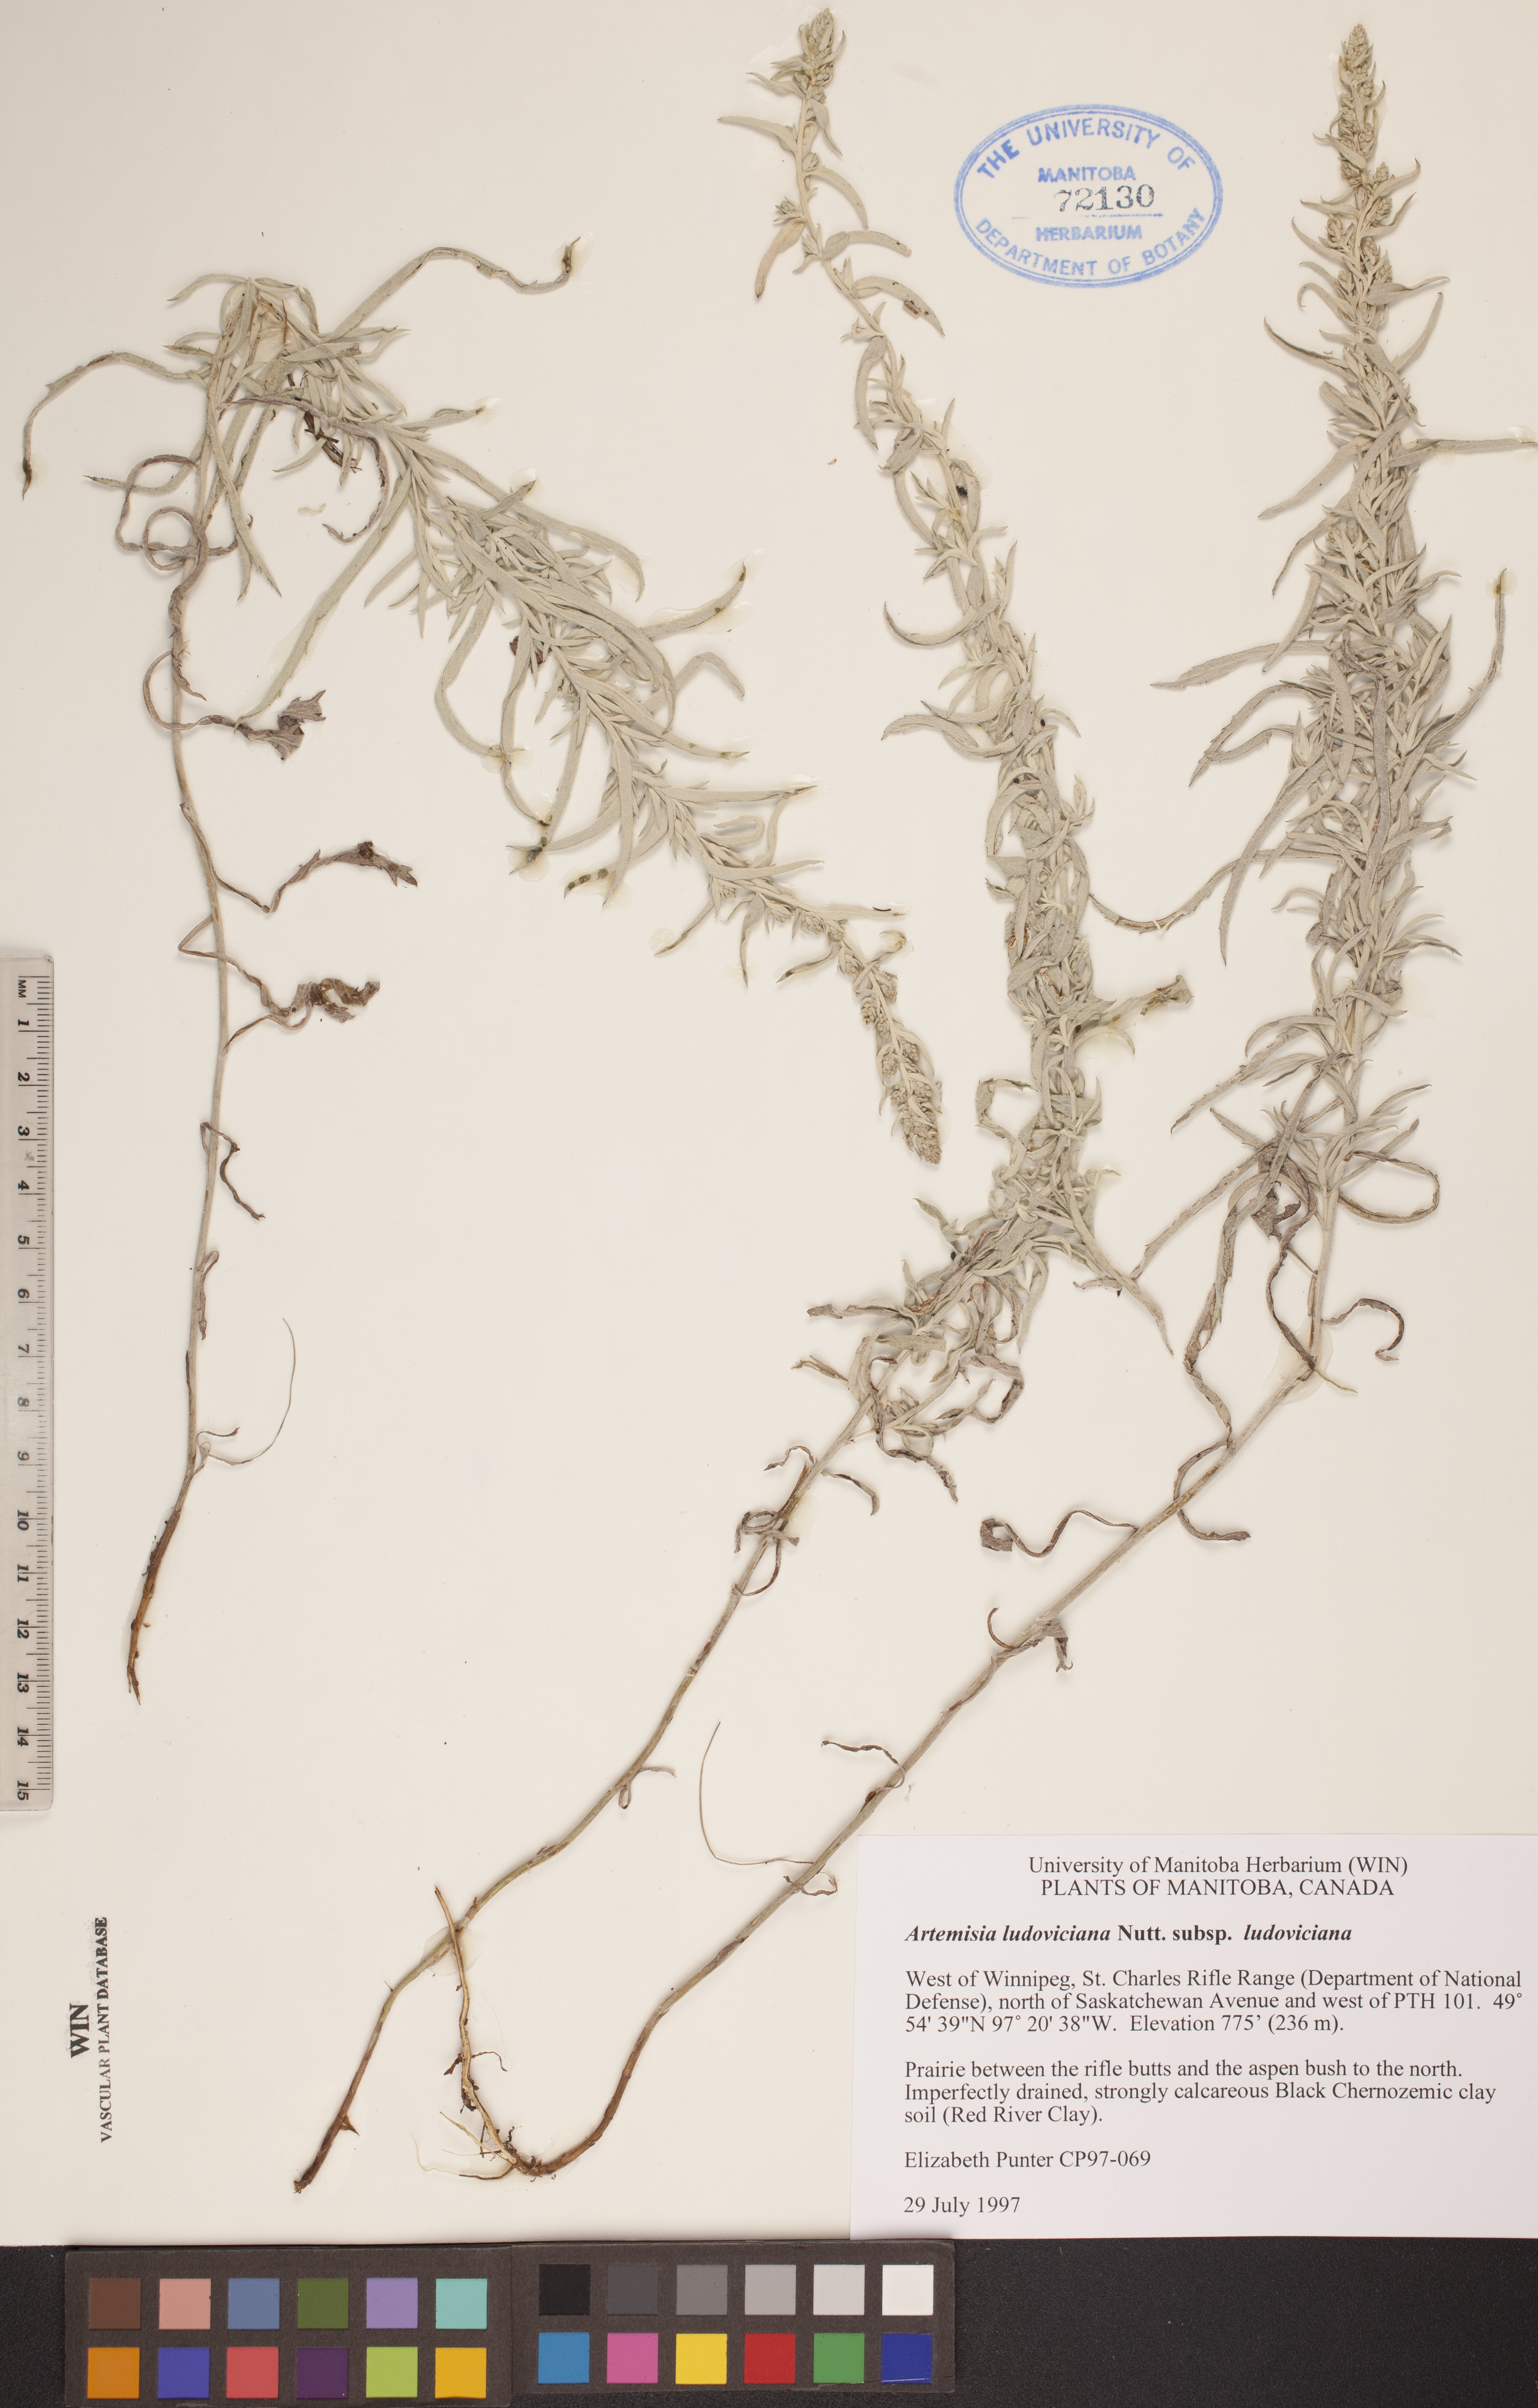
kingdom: Plantae
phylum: Tracheophyta
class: Magnoliopsida
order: Asterales
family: Asteraceae
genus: Artemisia
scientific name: Artemisia ludoviciana
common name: Western mugwort
